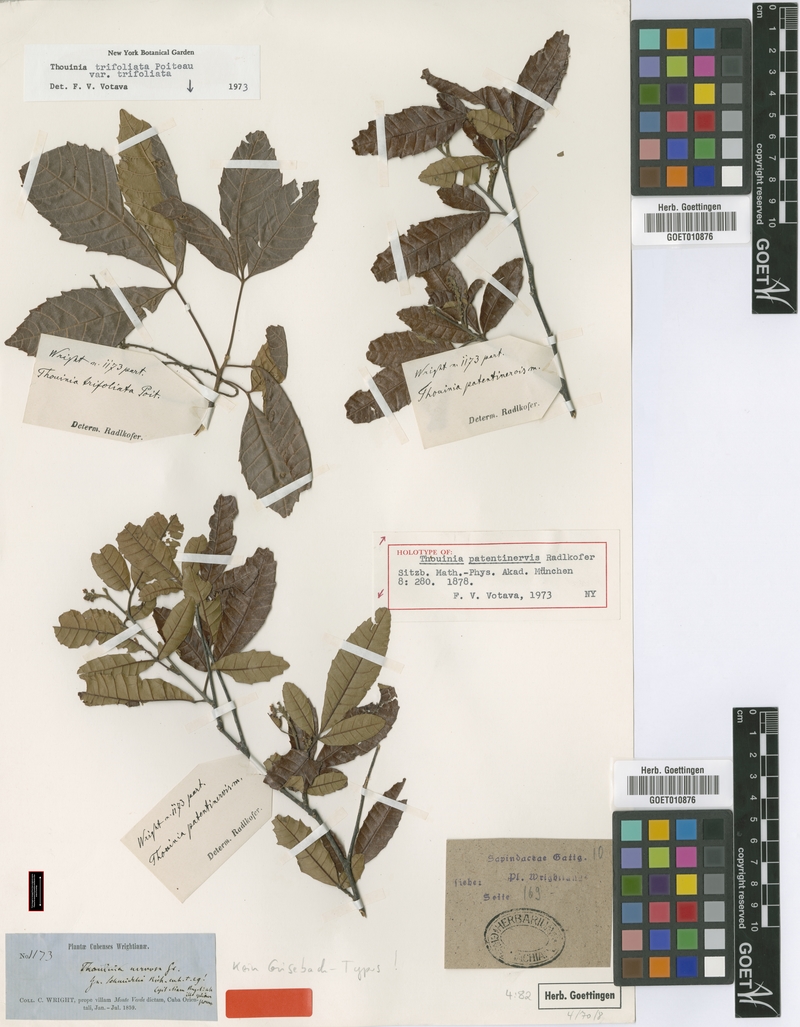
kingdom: Plantae
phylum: Tracheophyta
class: Magnoliopsida
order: Sapindales
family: Sapindaceae
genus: Thouinia
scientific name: Thouinia patentinervis
